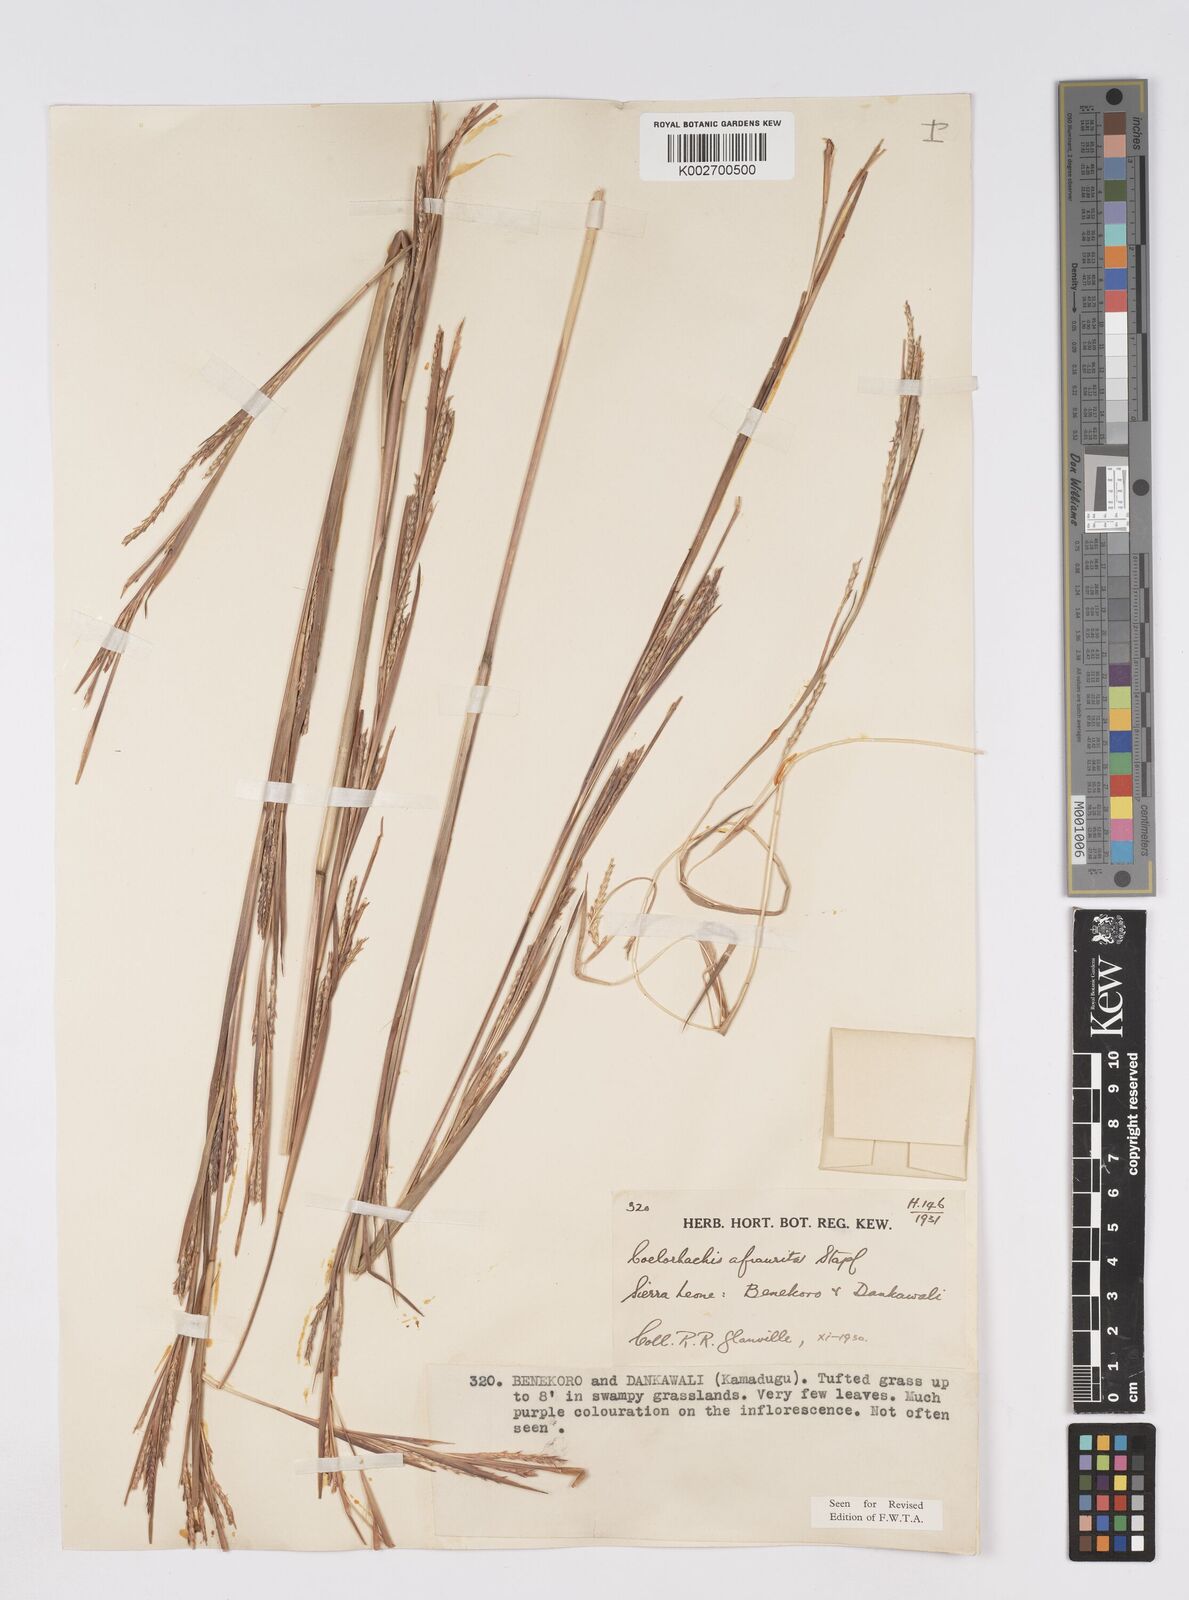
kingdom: Plantae
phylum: Tracheophyta
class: Liliopsida
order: Poales
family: Poaceae
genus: Rottboellia
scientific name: Rottboellia afraurita
